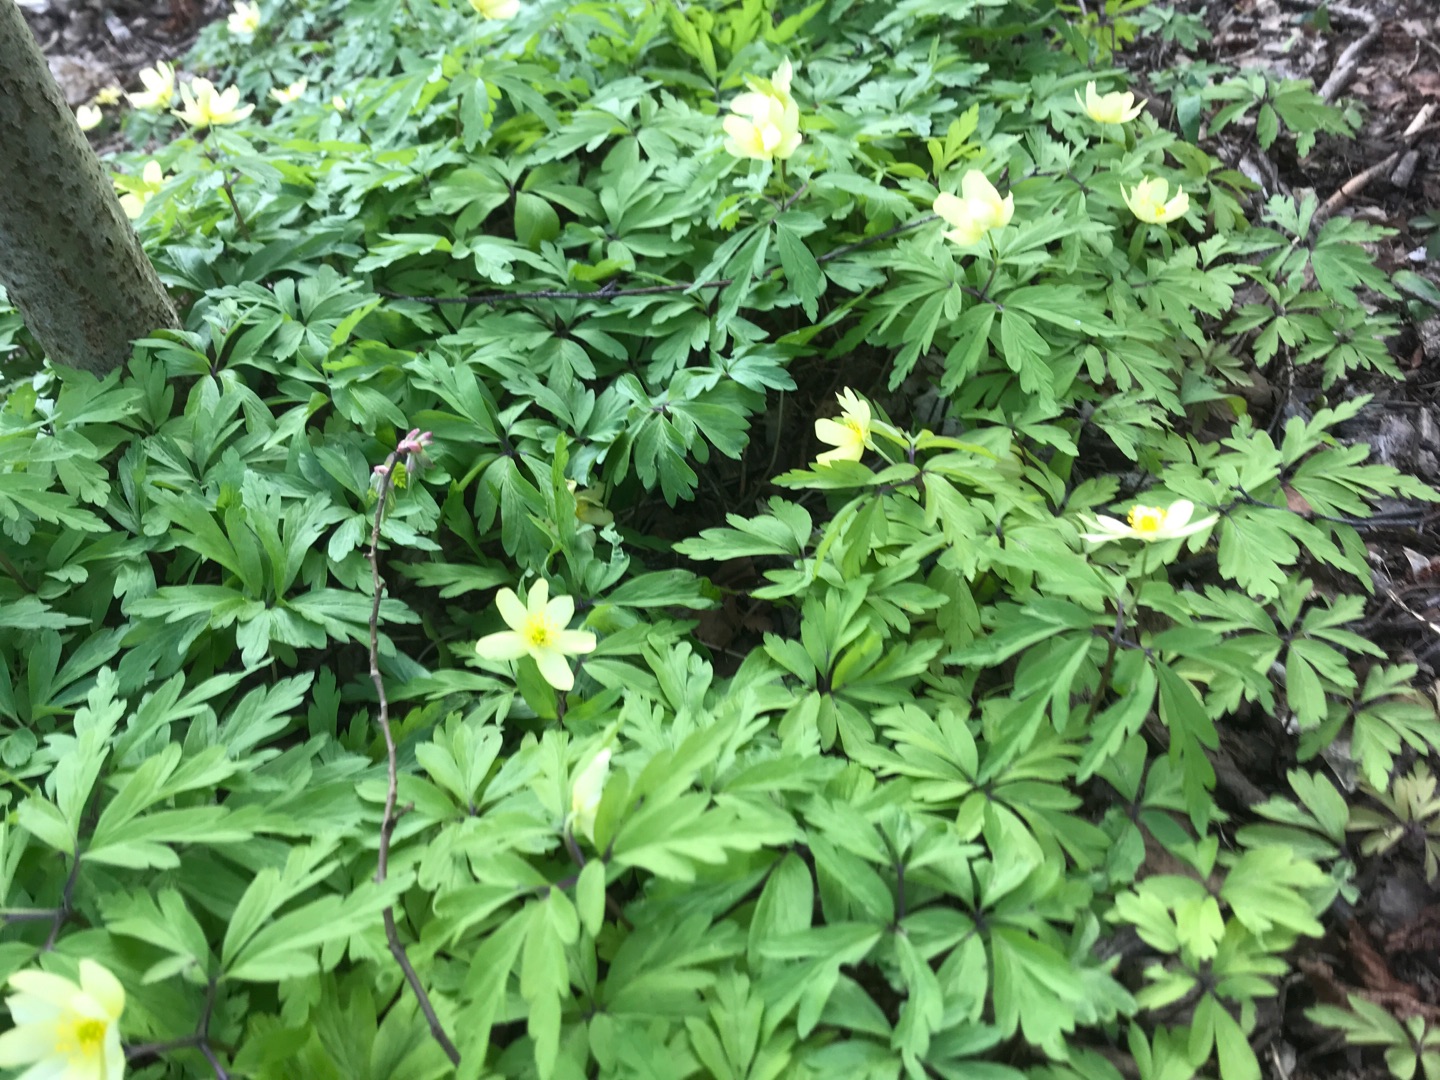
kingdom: Plantae
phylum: Tracheophyta
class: Magnoliopsida
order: Ranunculales
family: Ranunculaceae
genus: Anemone
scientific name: Anemone
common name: Svovlgul anemone
